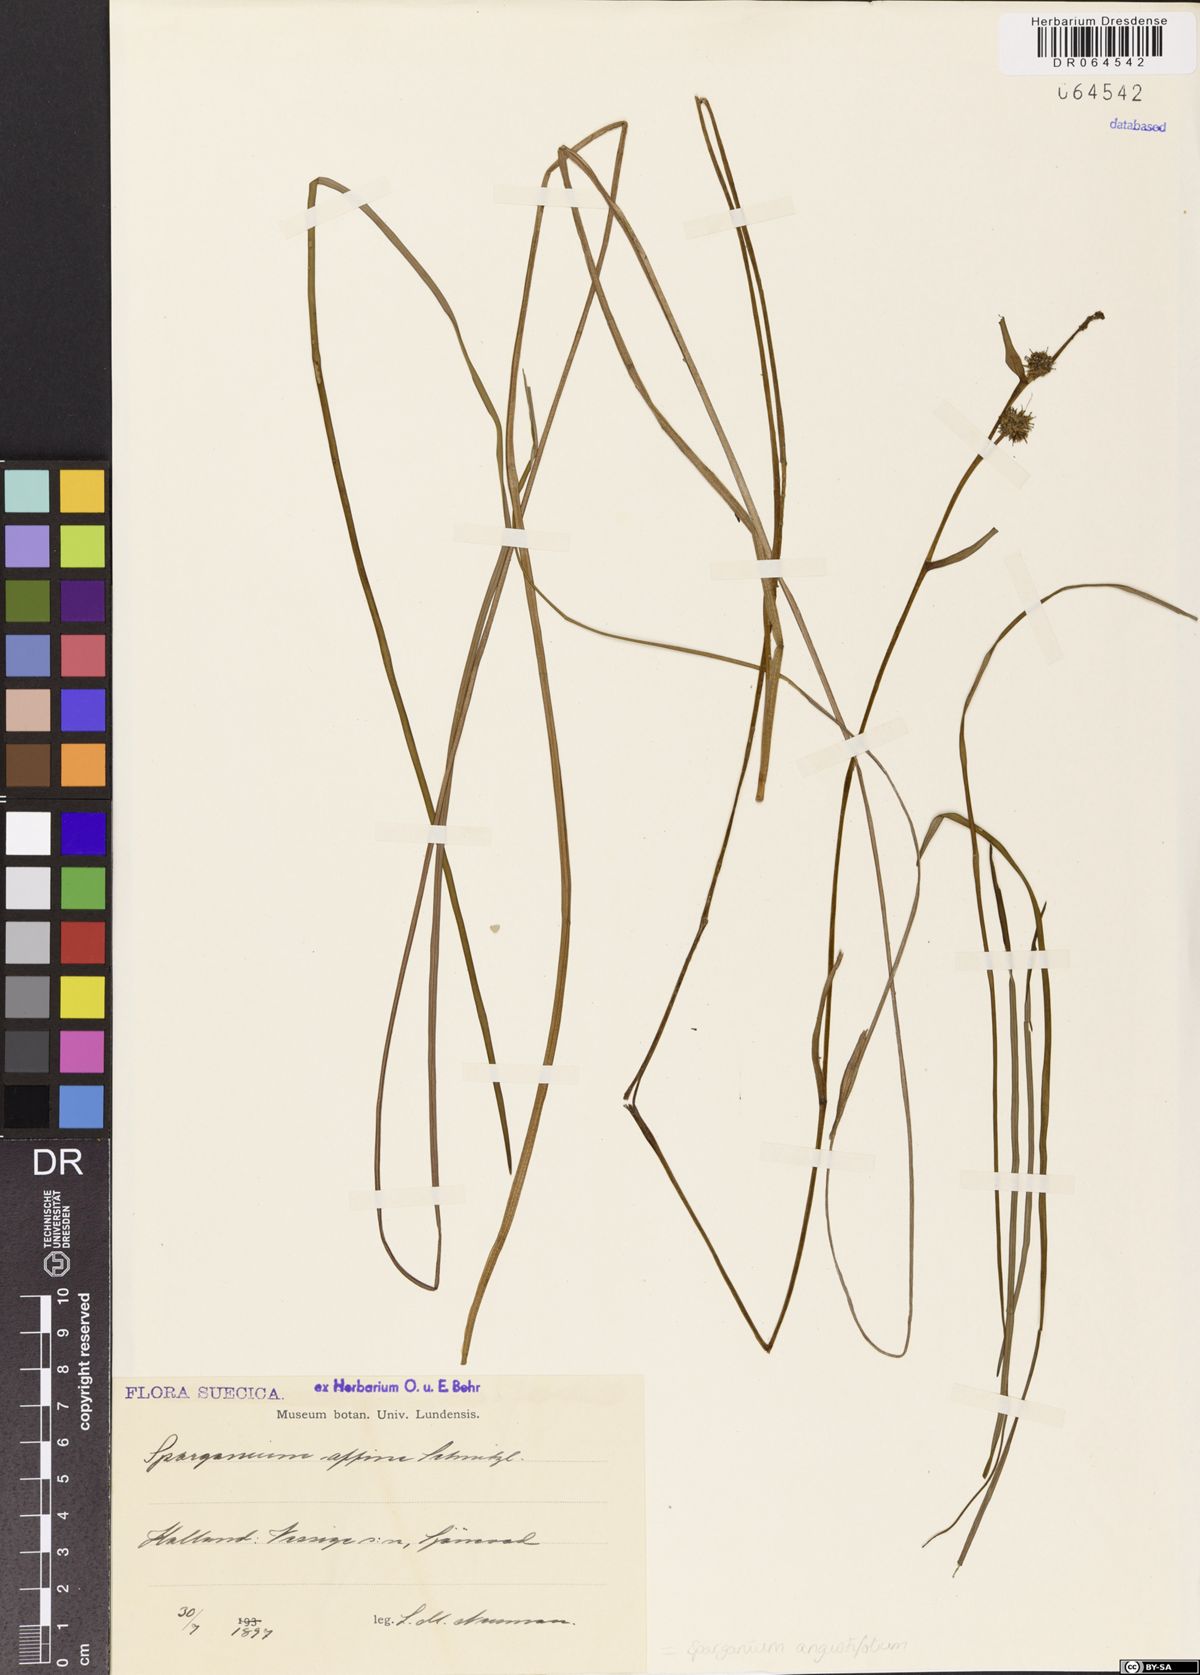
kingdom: Plantae
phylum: Tracheophyta
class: Liliopsida
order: Poales
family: Typhaceae
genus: Sparganium
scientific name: Sparganium angustifolium
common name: Floating bur-reed
